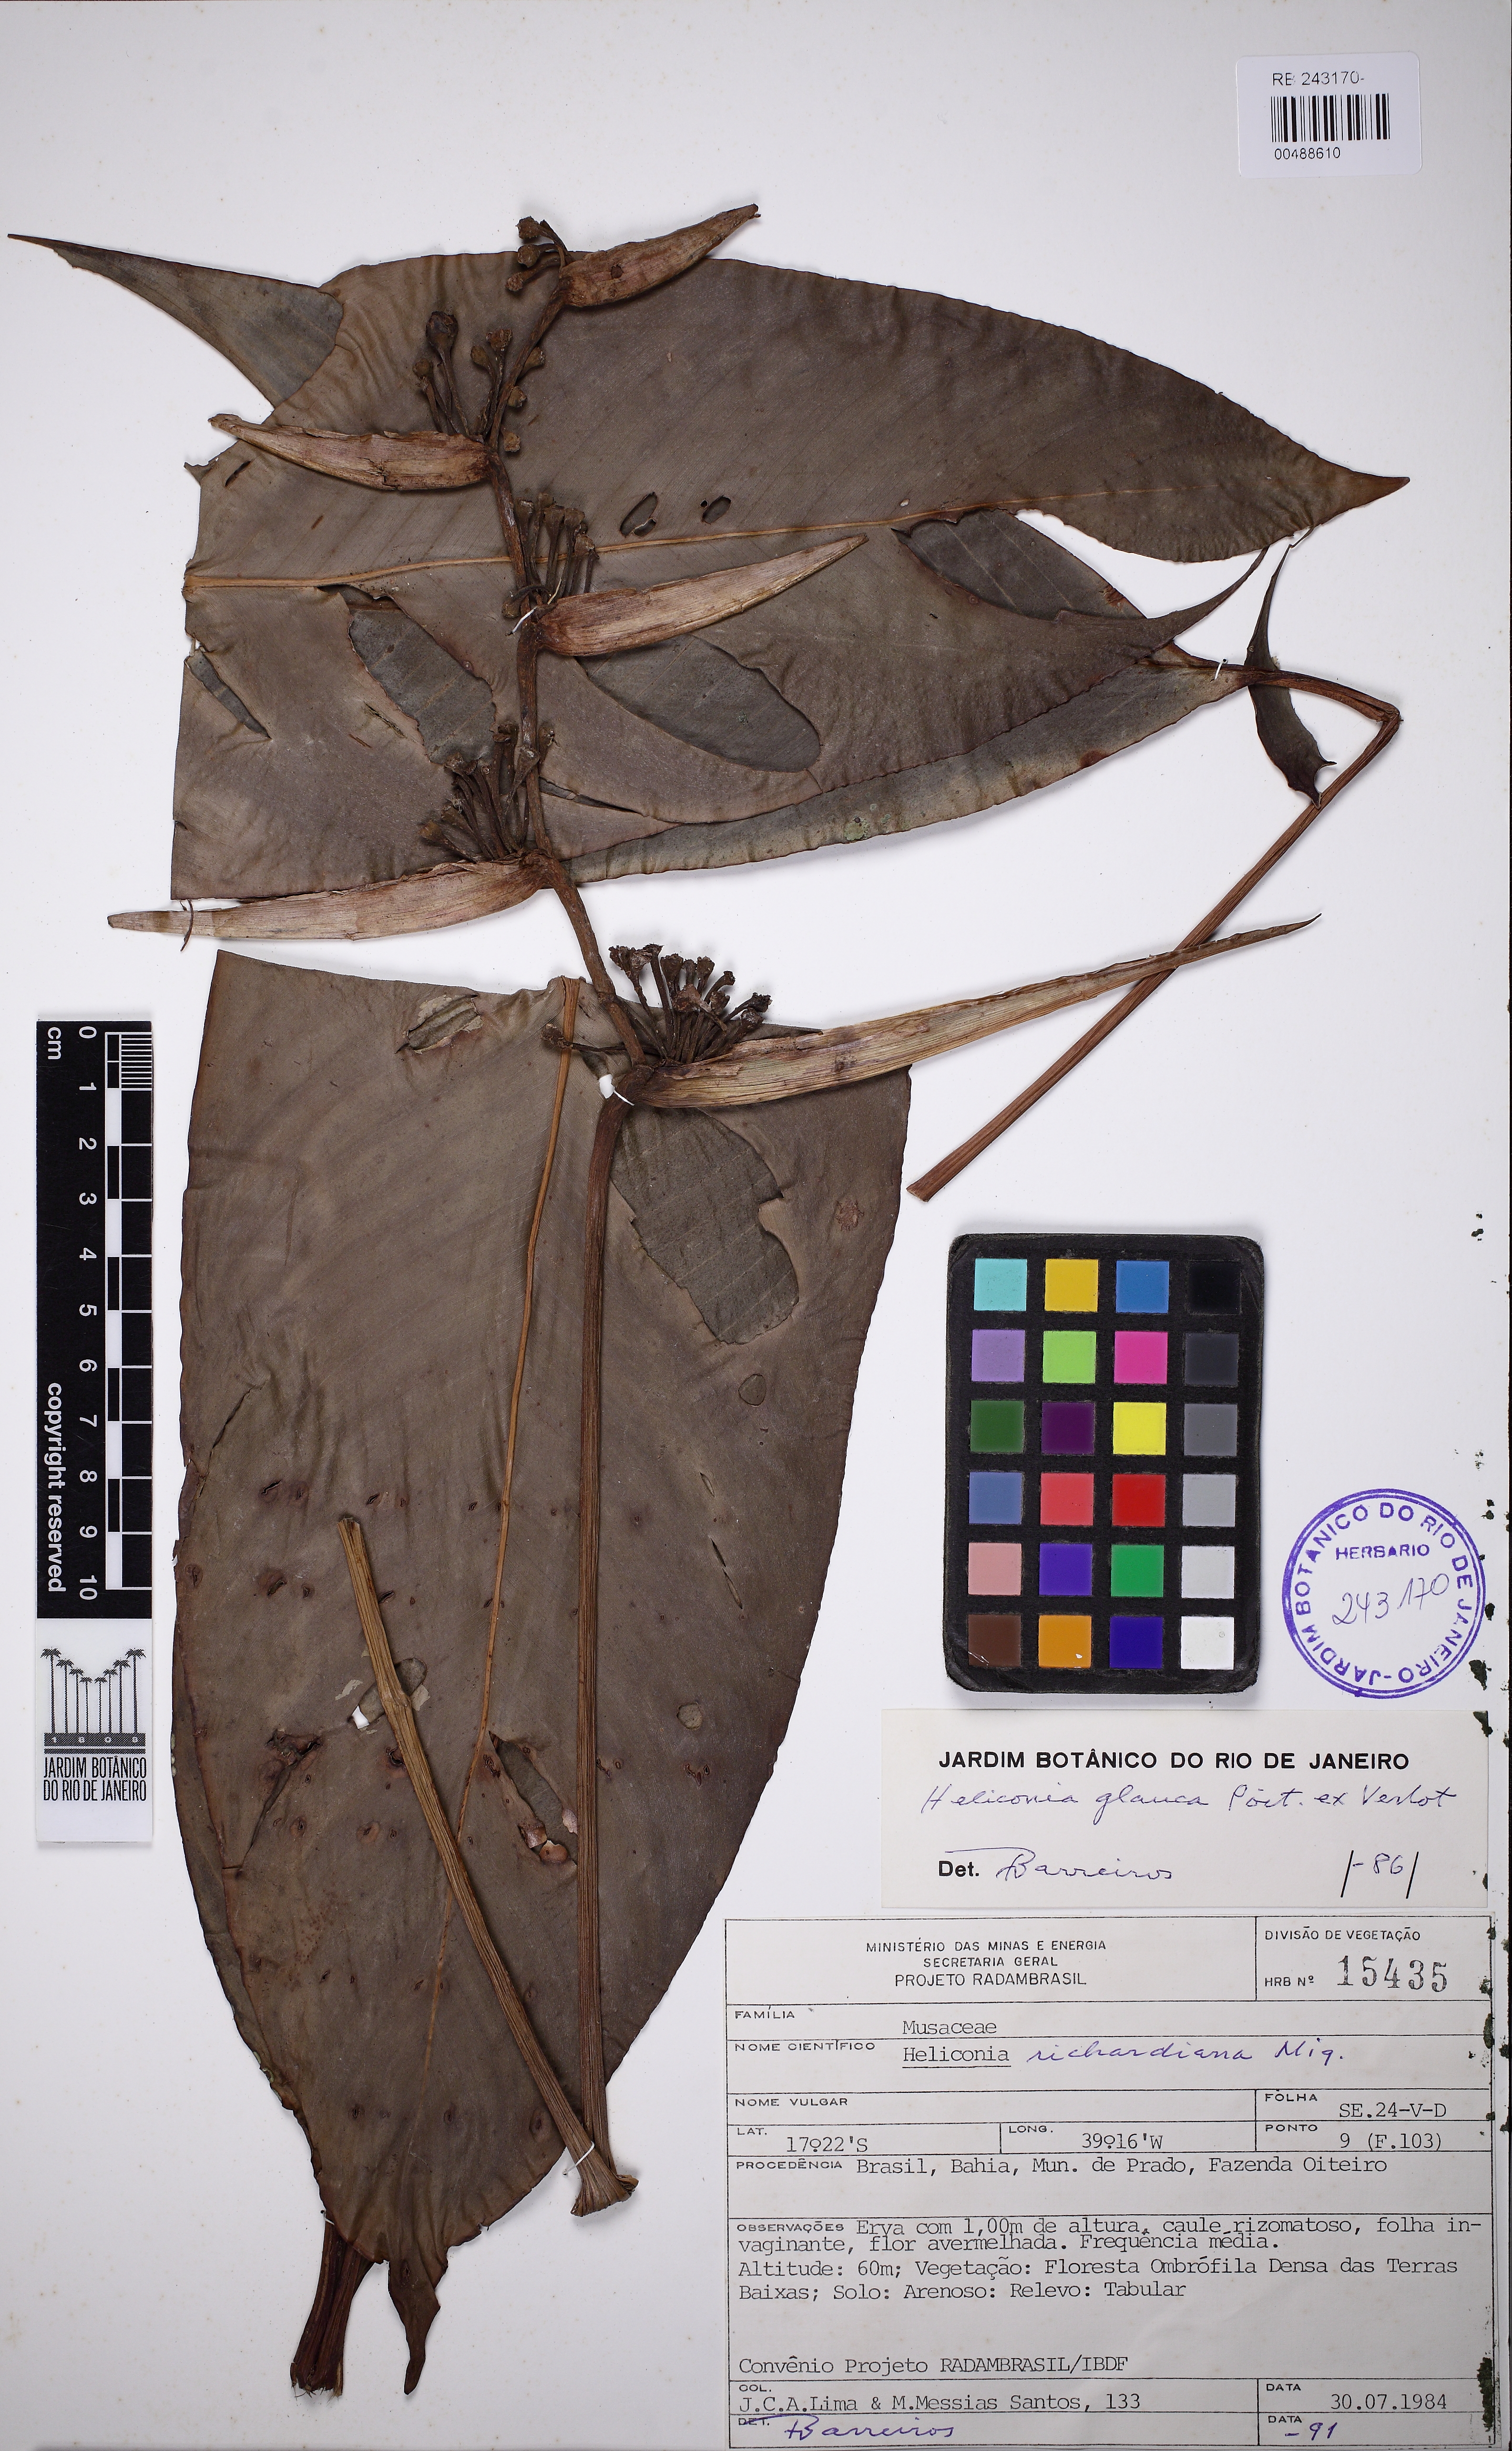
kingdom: Plantae
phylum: Tracheophyta
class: Liliopsida
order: Zingiberales
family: Heliconiaceae
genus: Heliconia
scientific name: Heliconia richardiana
